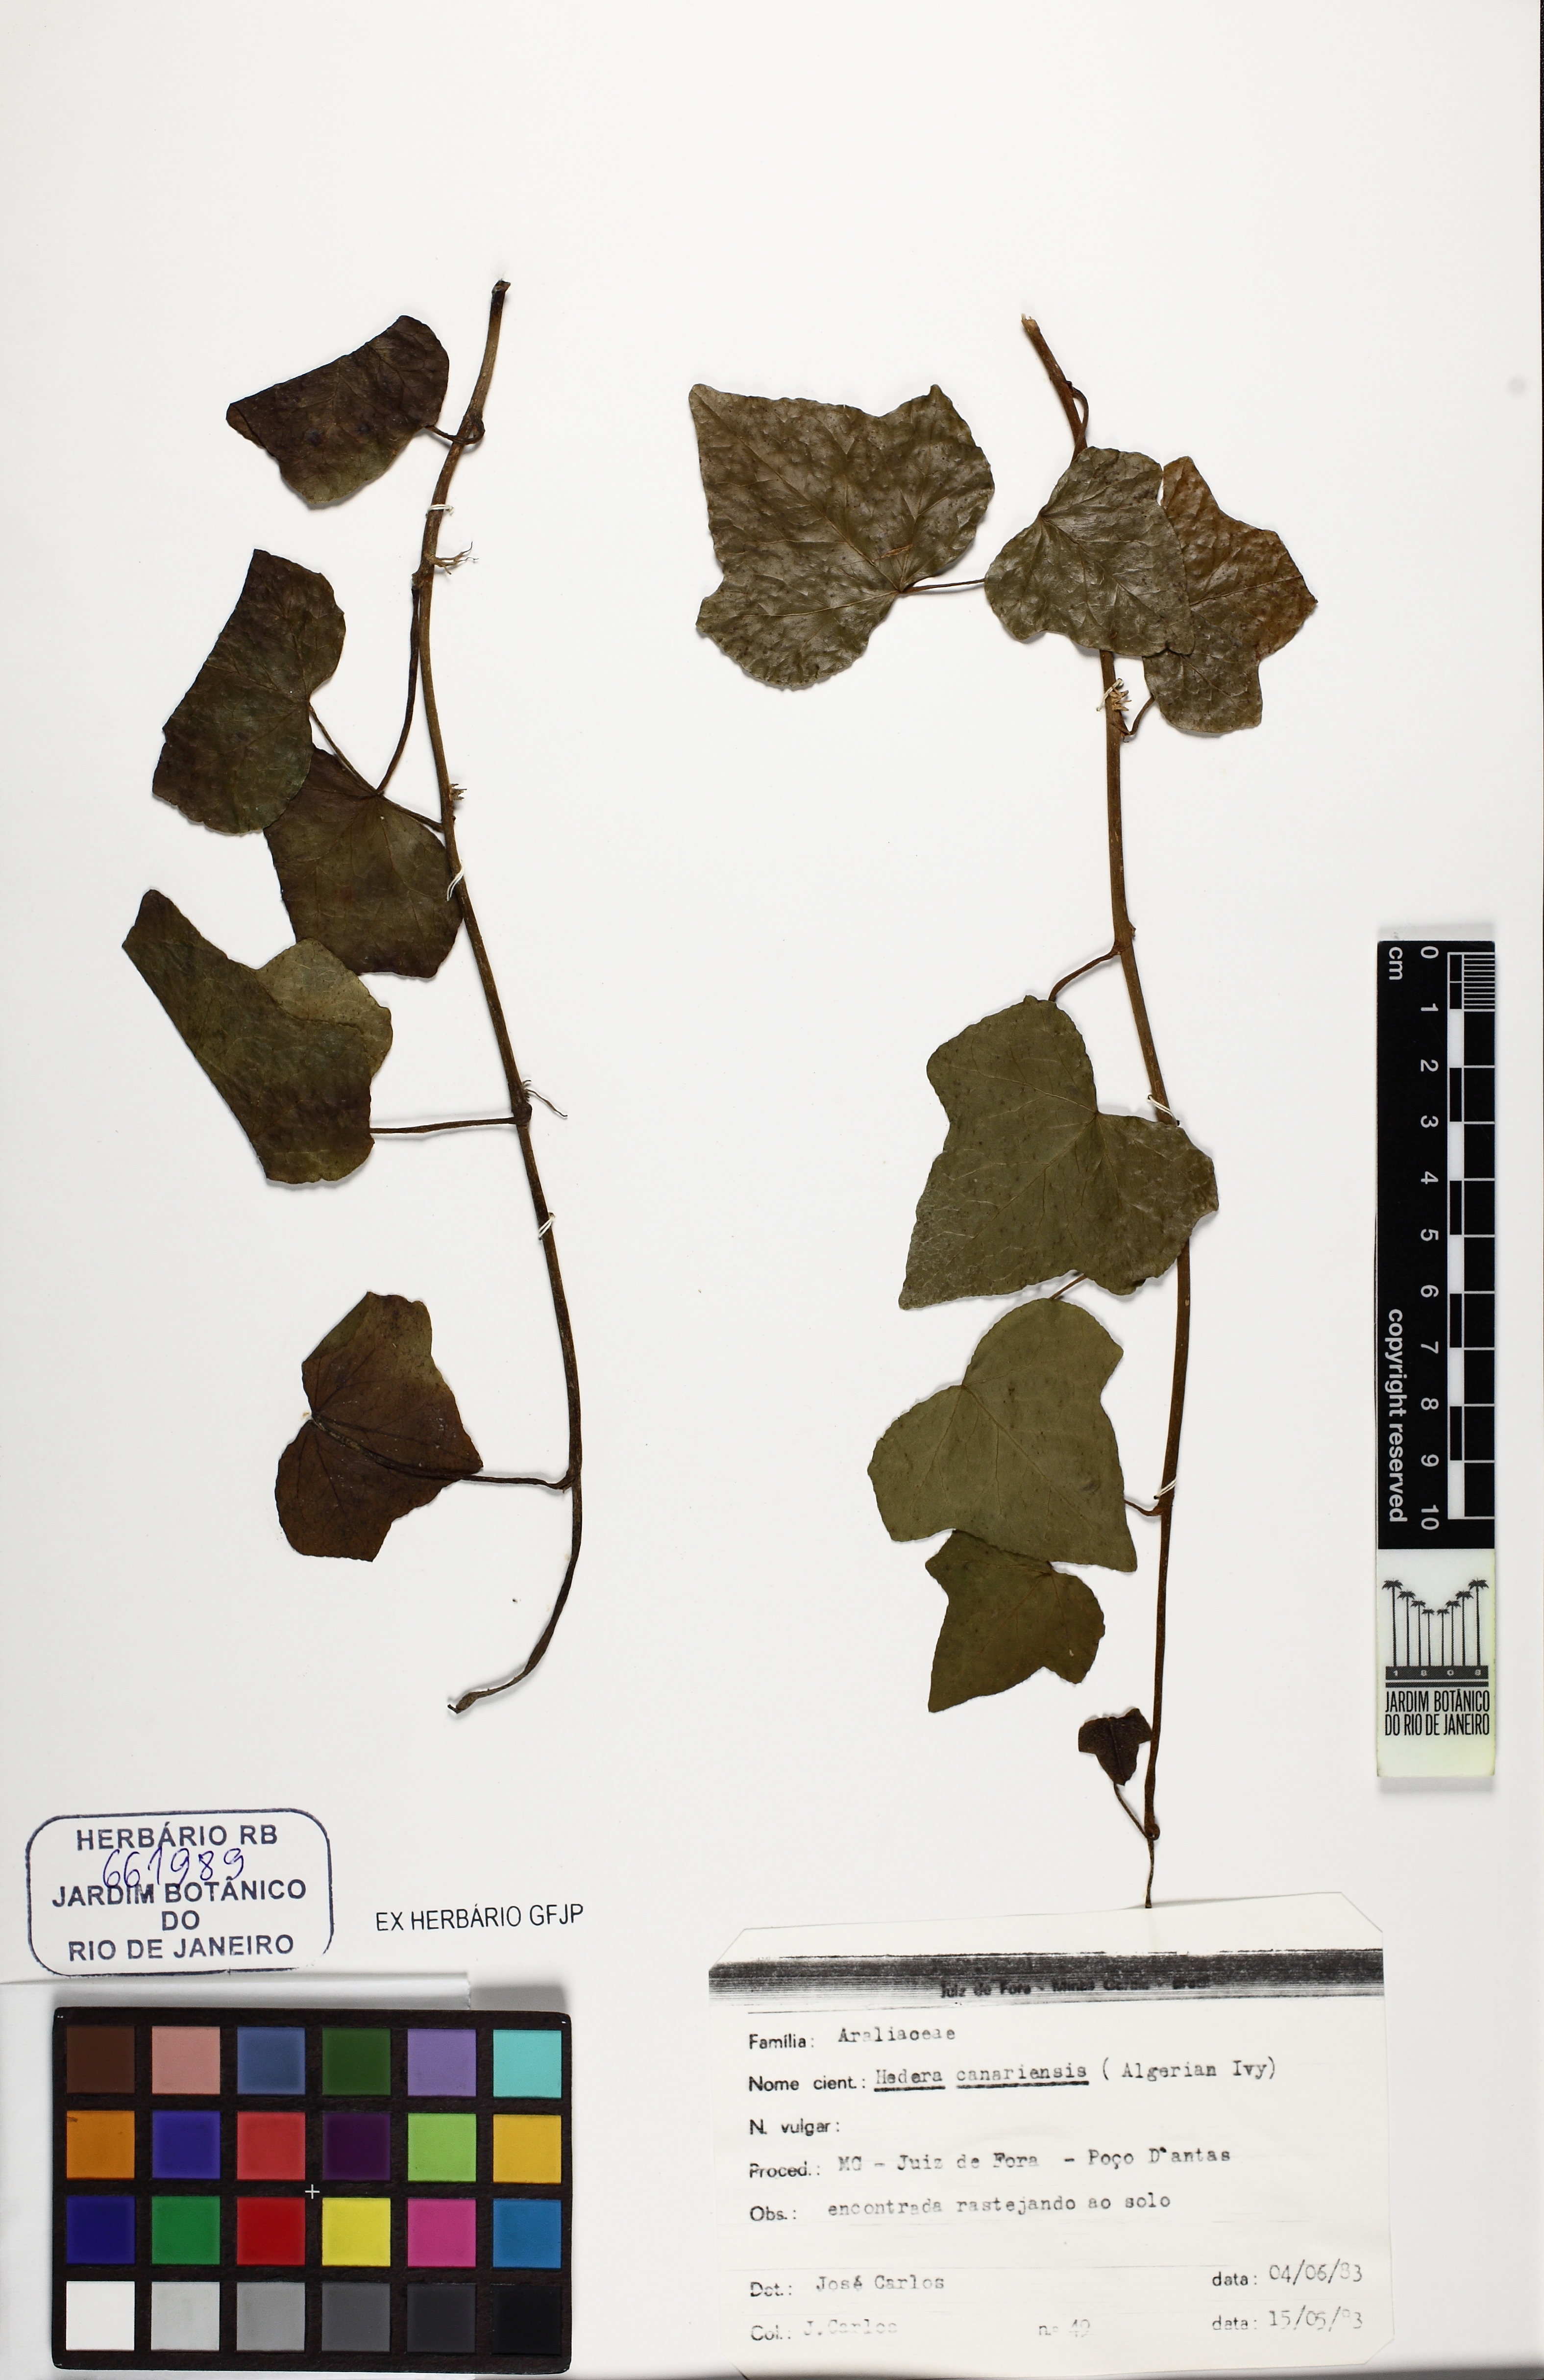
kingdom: Plantae
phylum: Tracheophyta
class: Magnoliopsida
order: Apiales
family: Araliaceae
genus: Hedera
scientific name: Hedera canariensis
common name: Madeira ivy
